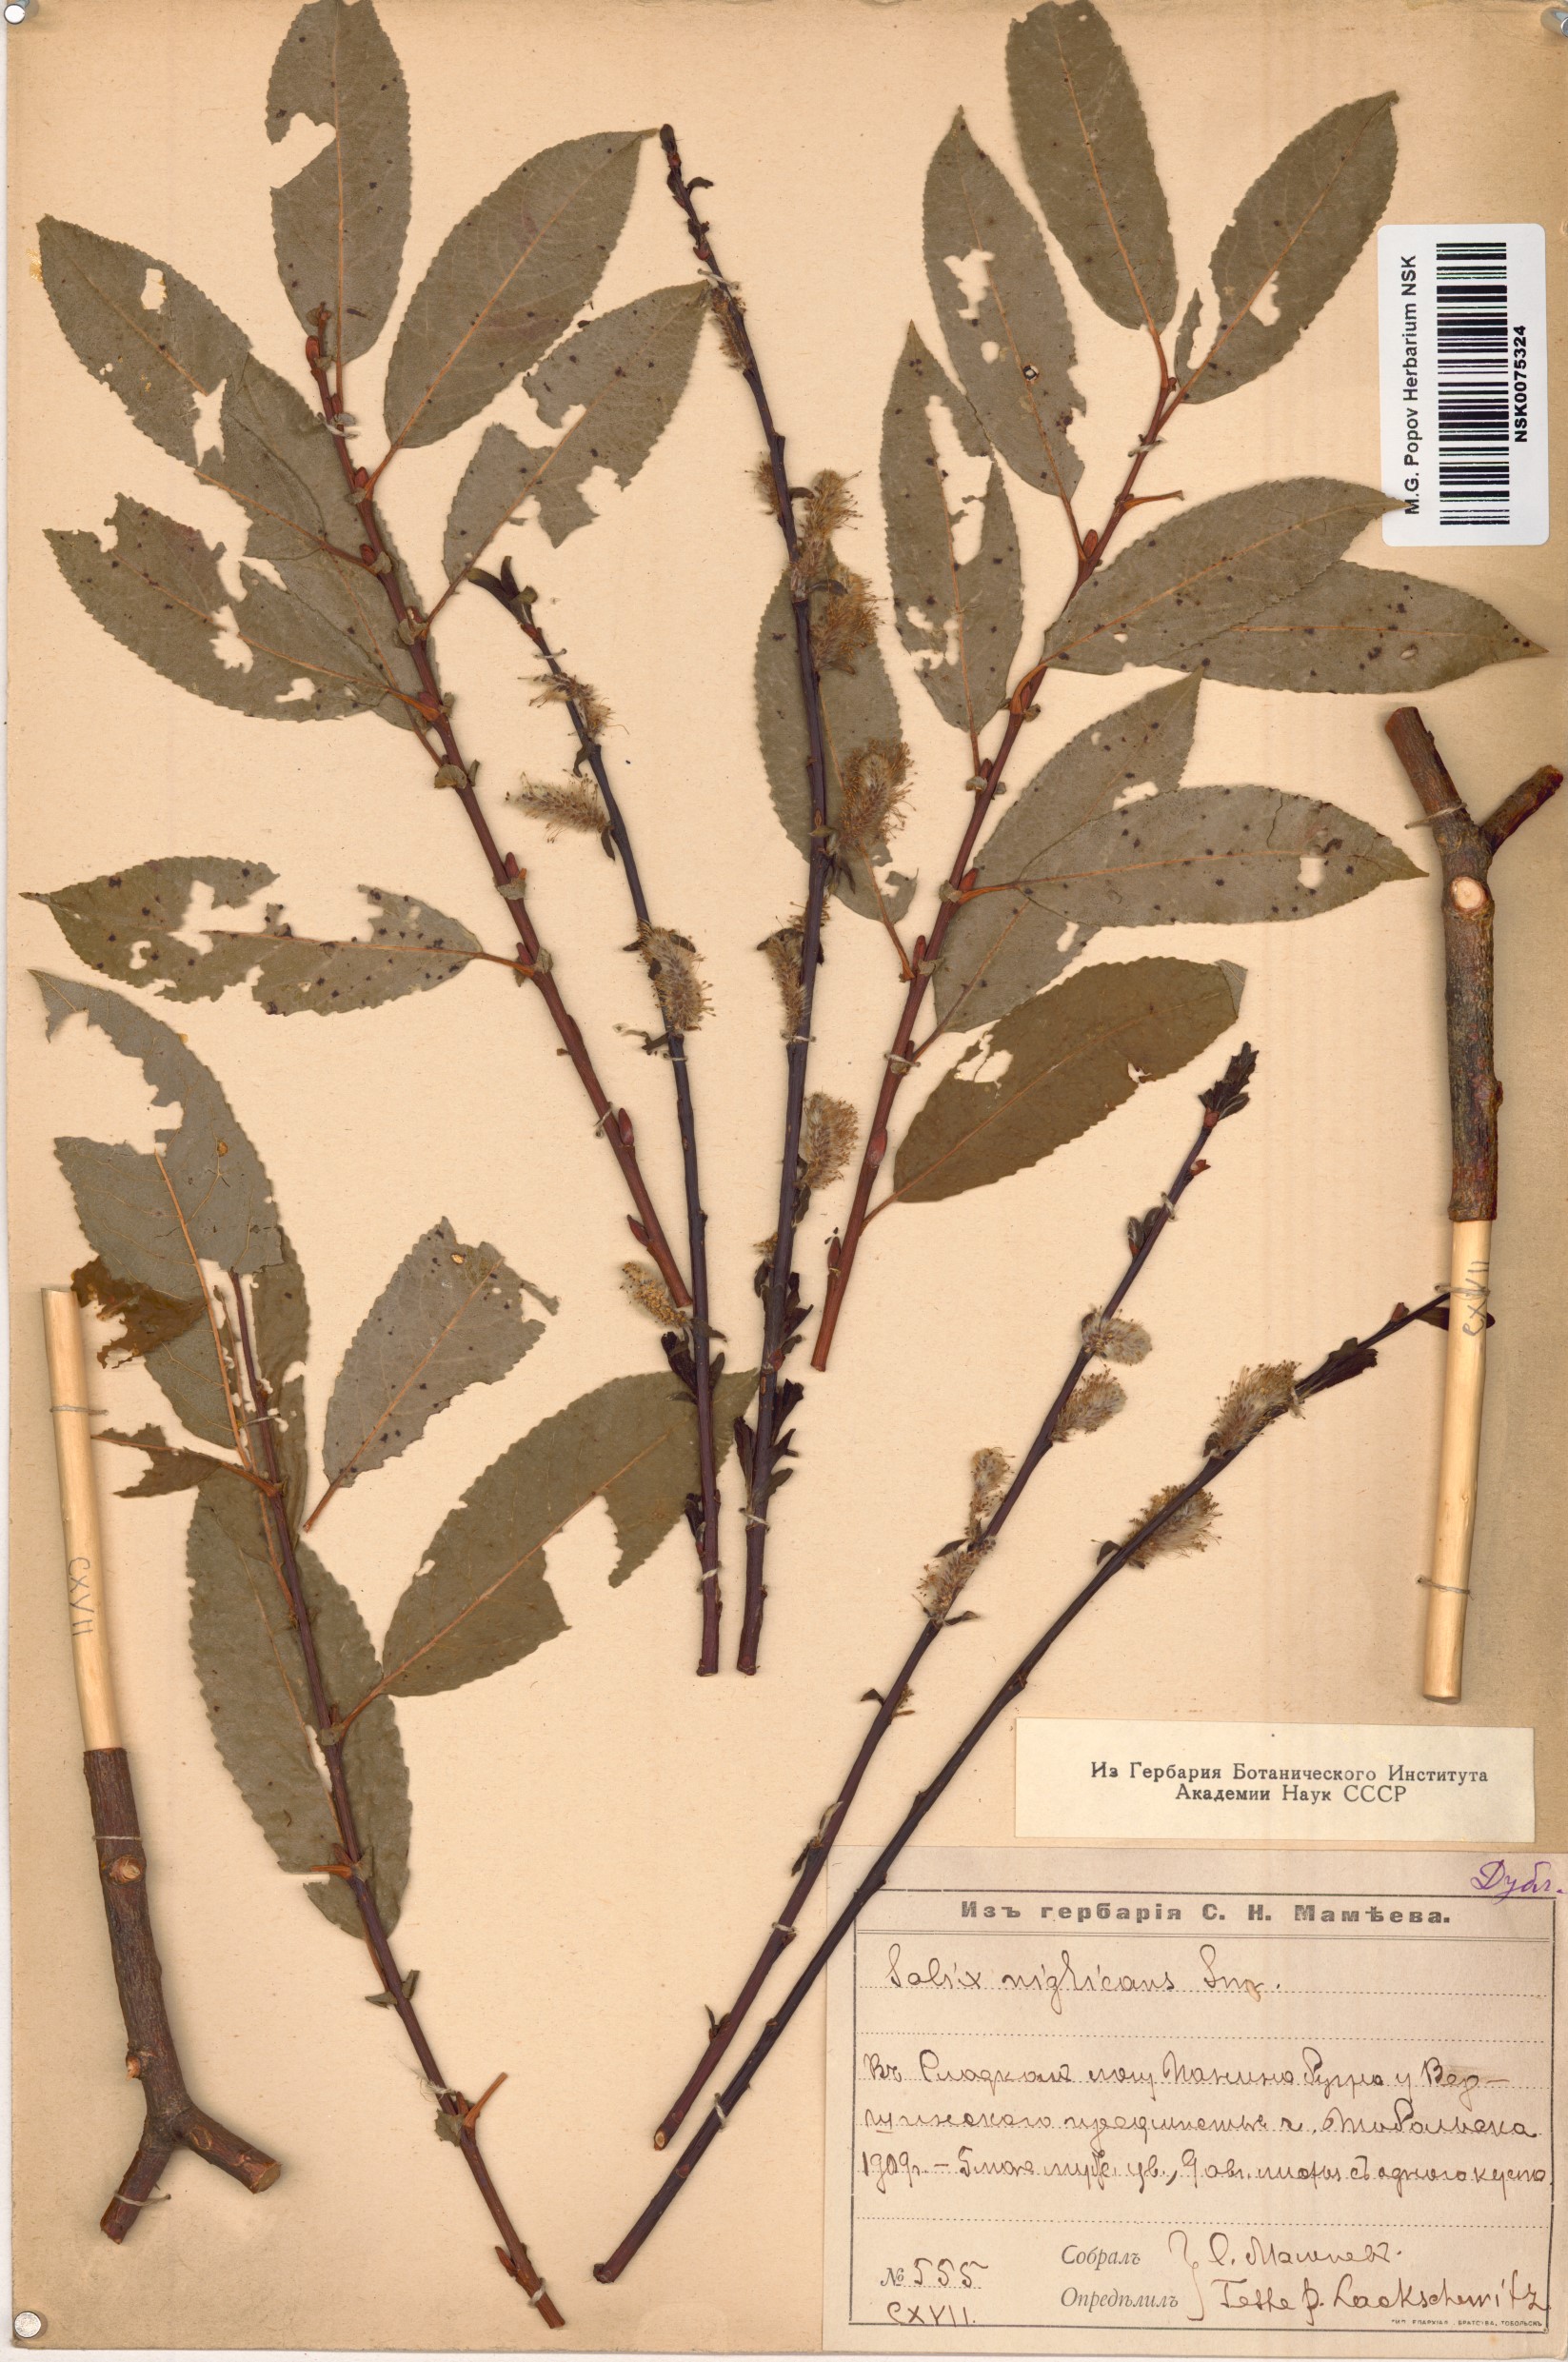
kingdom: Plantae
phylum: Tracheophyta
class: Magnoliopsida
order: Malpighiales
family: Salicaceae
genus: Salix
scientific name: Salix myrsinifolia
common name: Dark-leaved willow
